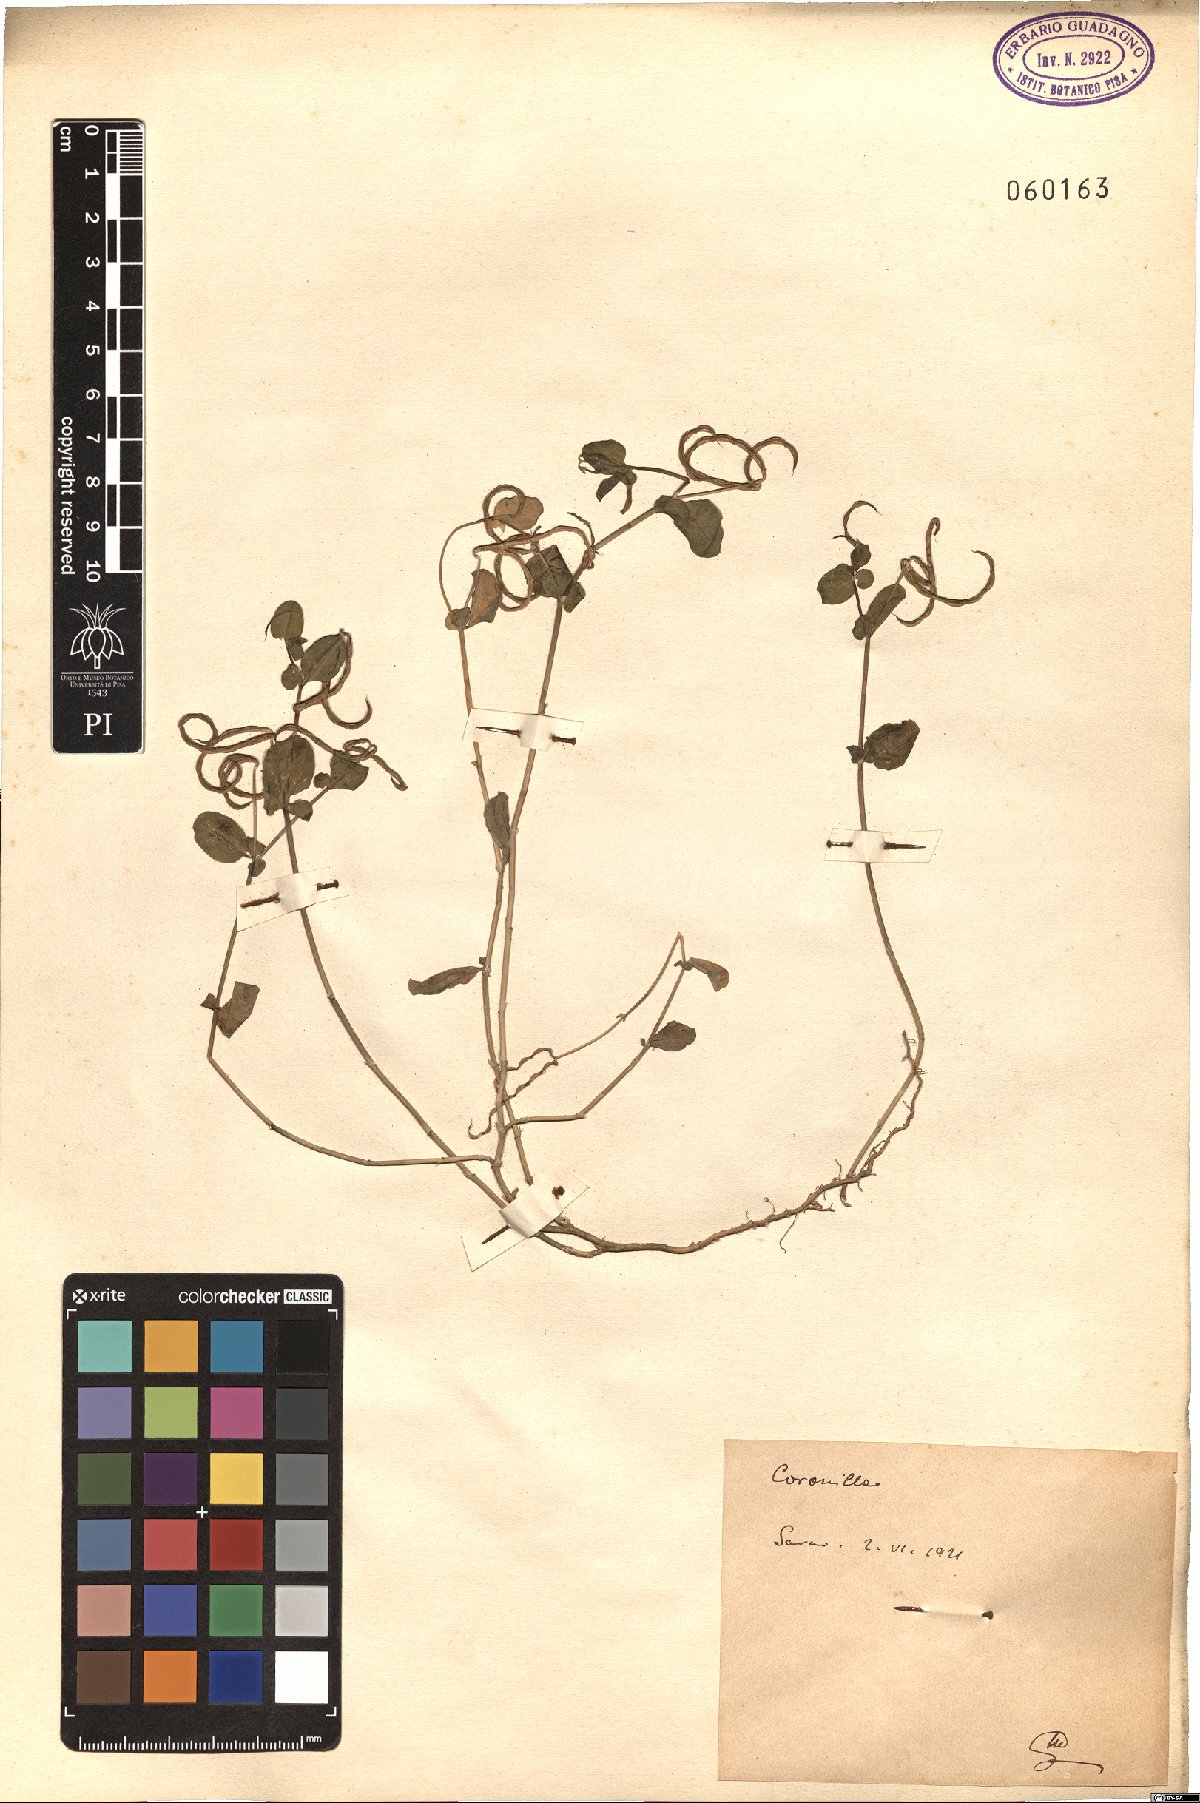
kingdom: Plantae
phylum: Tracheophyta
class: Magnoliopsida
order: Fabales
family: Fabaceae
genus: Coronilla
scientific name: Coronilla
